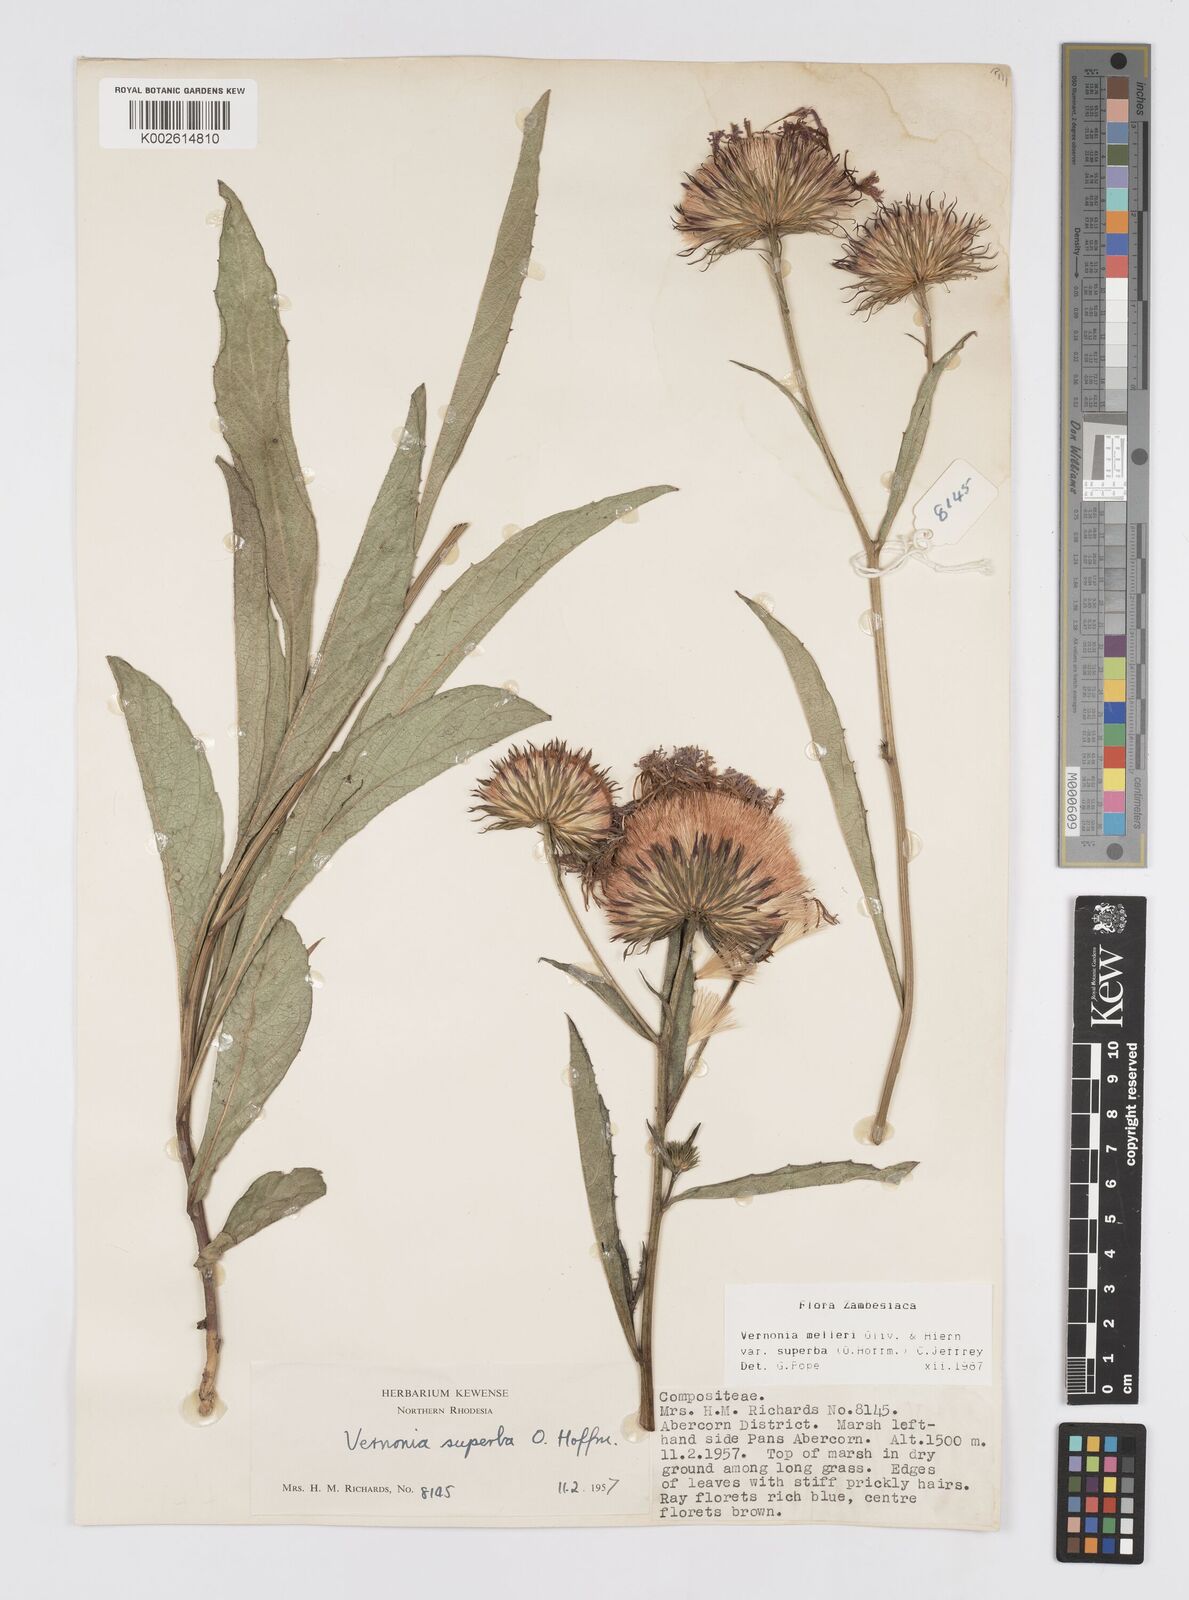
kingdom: Plantae
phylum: Tracheophyta
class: Magnoliopsida
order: Asterales
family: Asteraceae
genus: Linzia
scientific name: Linzia melleri
